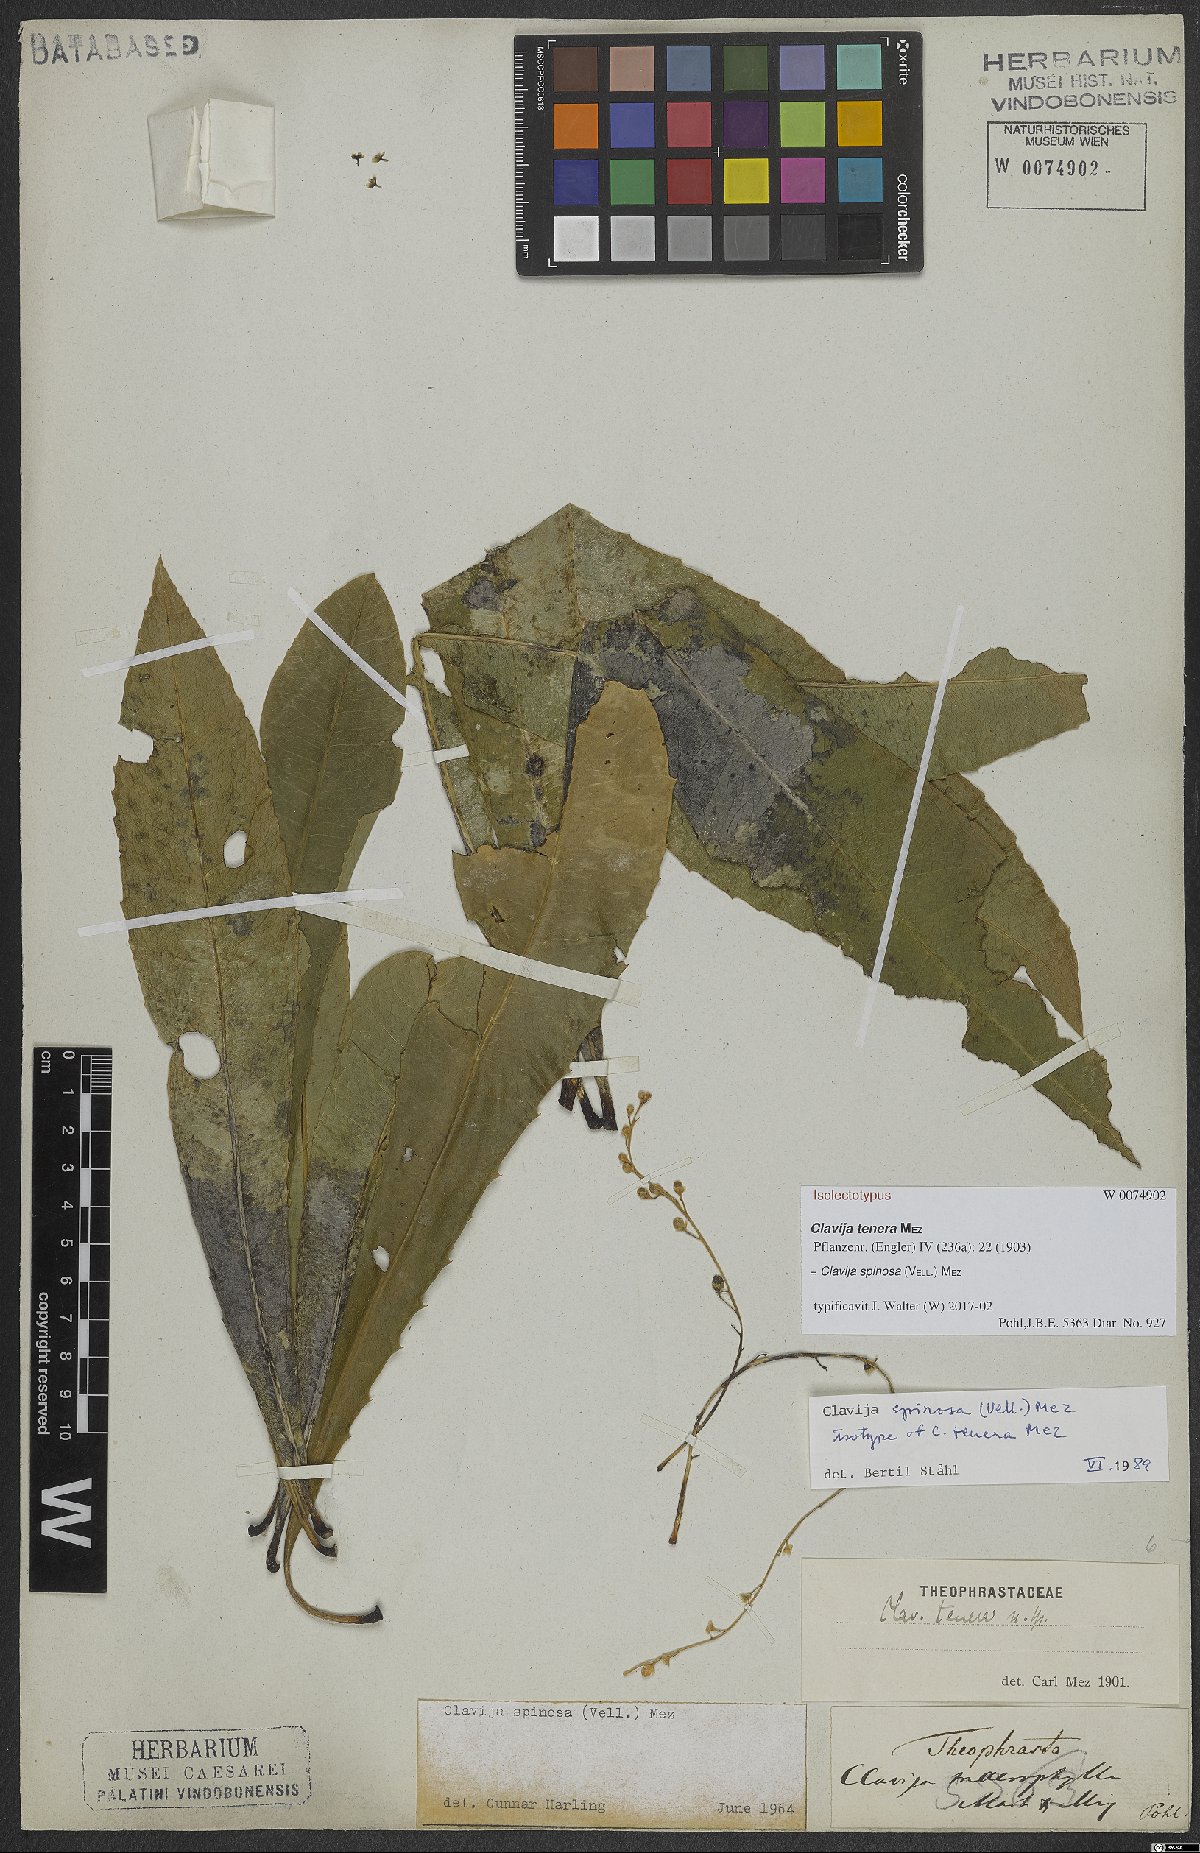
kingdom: Plantae
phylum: Tracheophyta
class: Magnoliopsida
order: Ericales
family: Primulaceae
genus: Clavija
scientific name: Clavija spinosa
